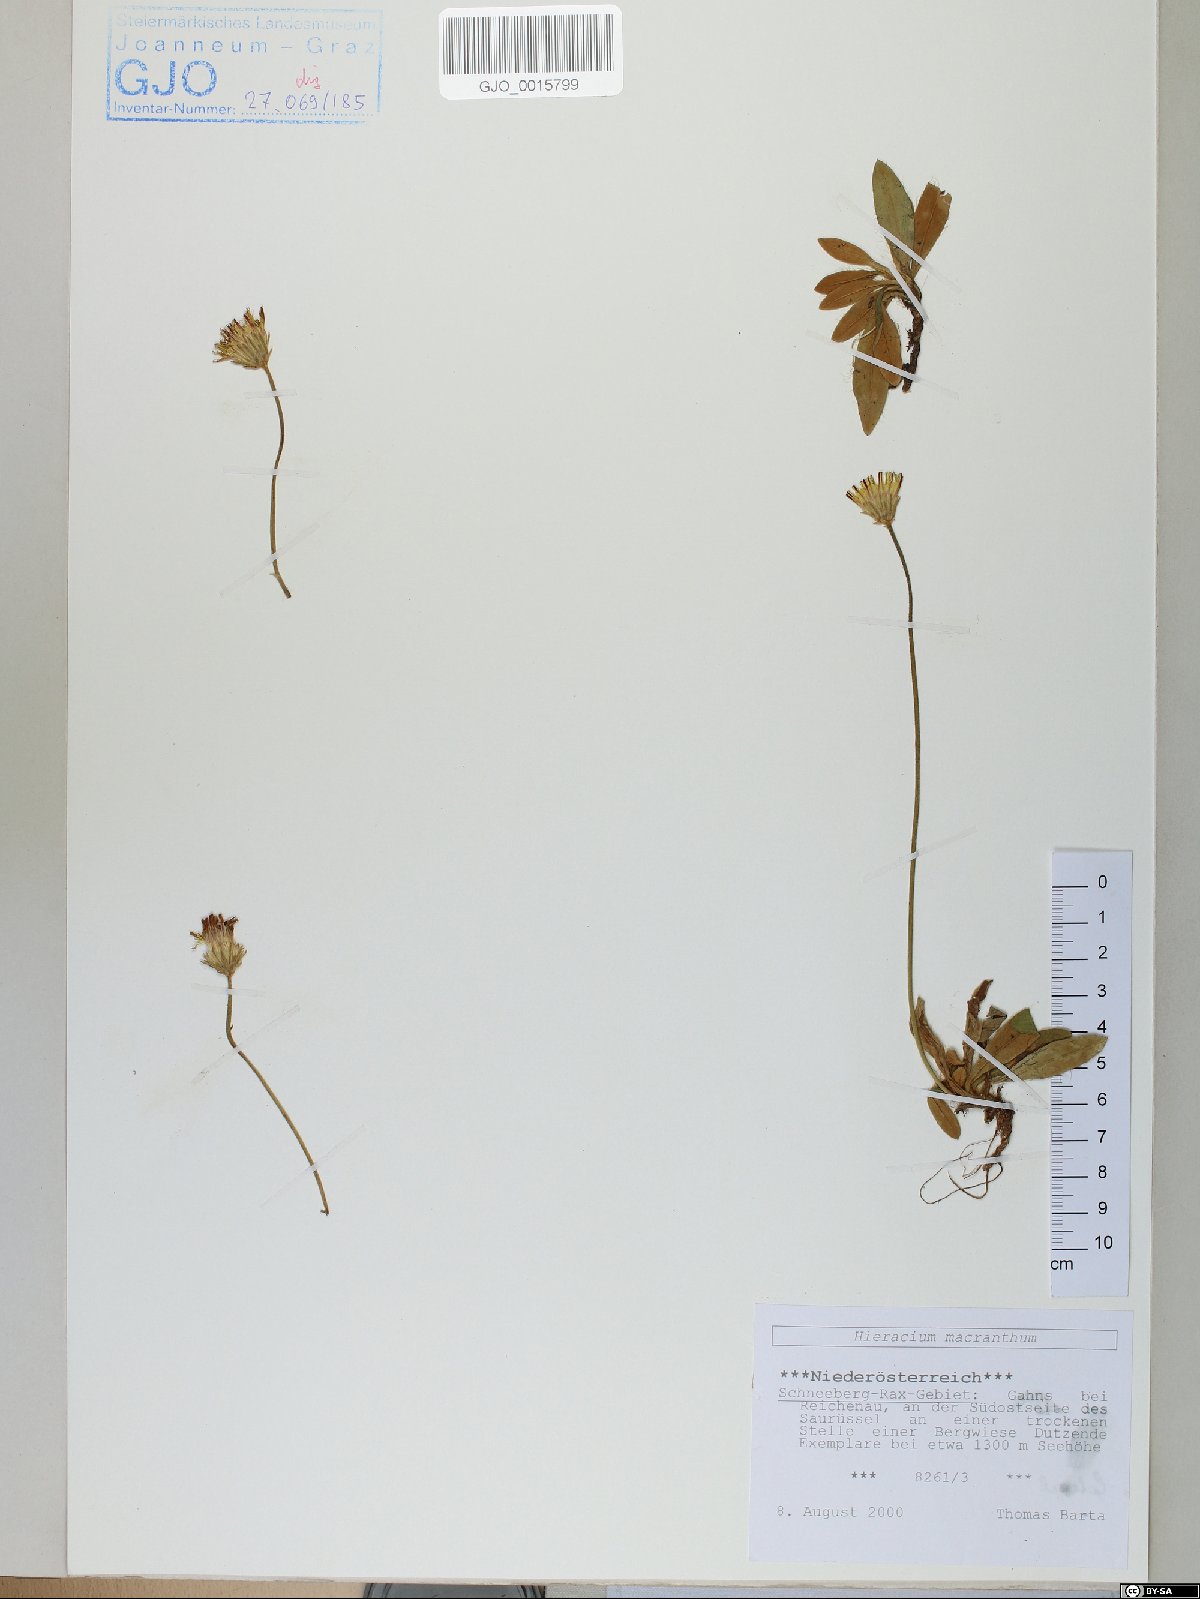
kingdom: Plantae
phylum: Tracheophyta
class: Magnoliopsida
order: Asterales
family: Asteraceae
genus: Pilosella
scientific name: Pilosella hoppeana
